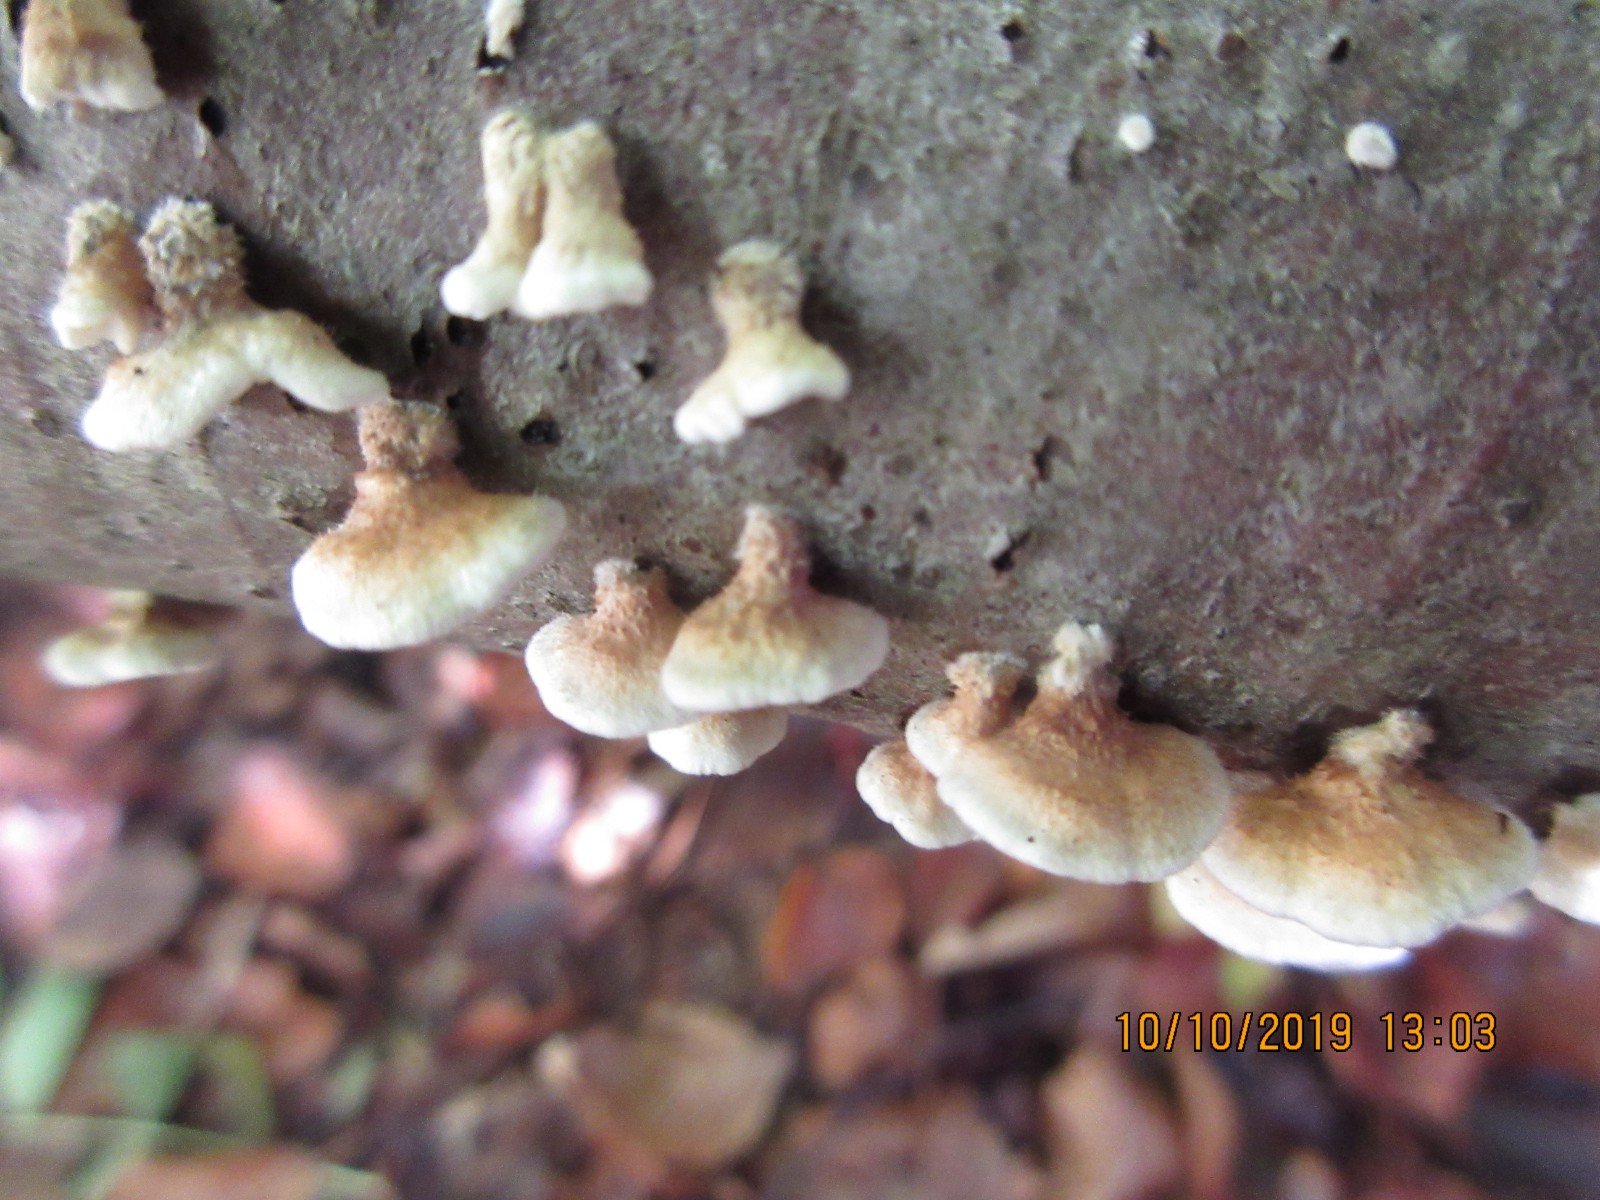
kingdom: Fungi
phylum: Basidiomycota
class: Agaricomycetes
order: Amylocorticiales
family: Amylocorticiaceae
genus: Plicaturopsis
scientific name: Plicaturopsis crispa
